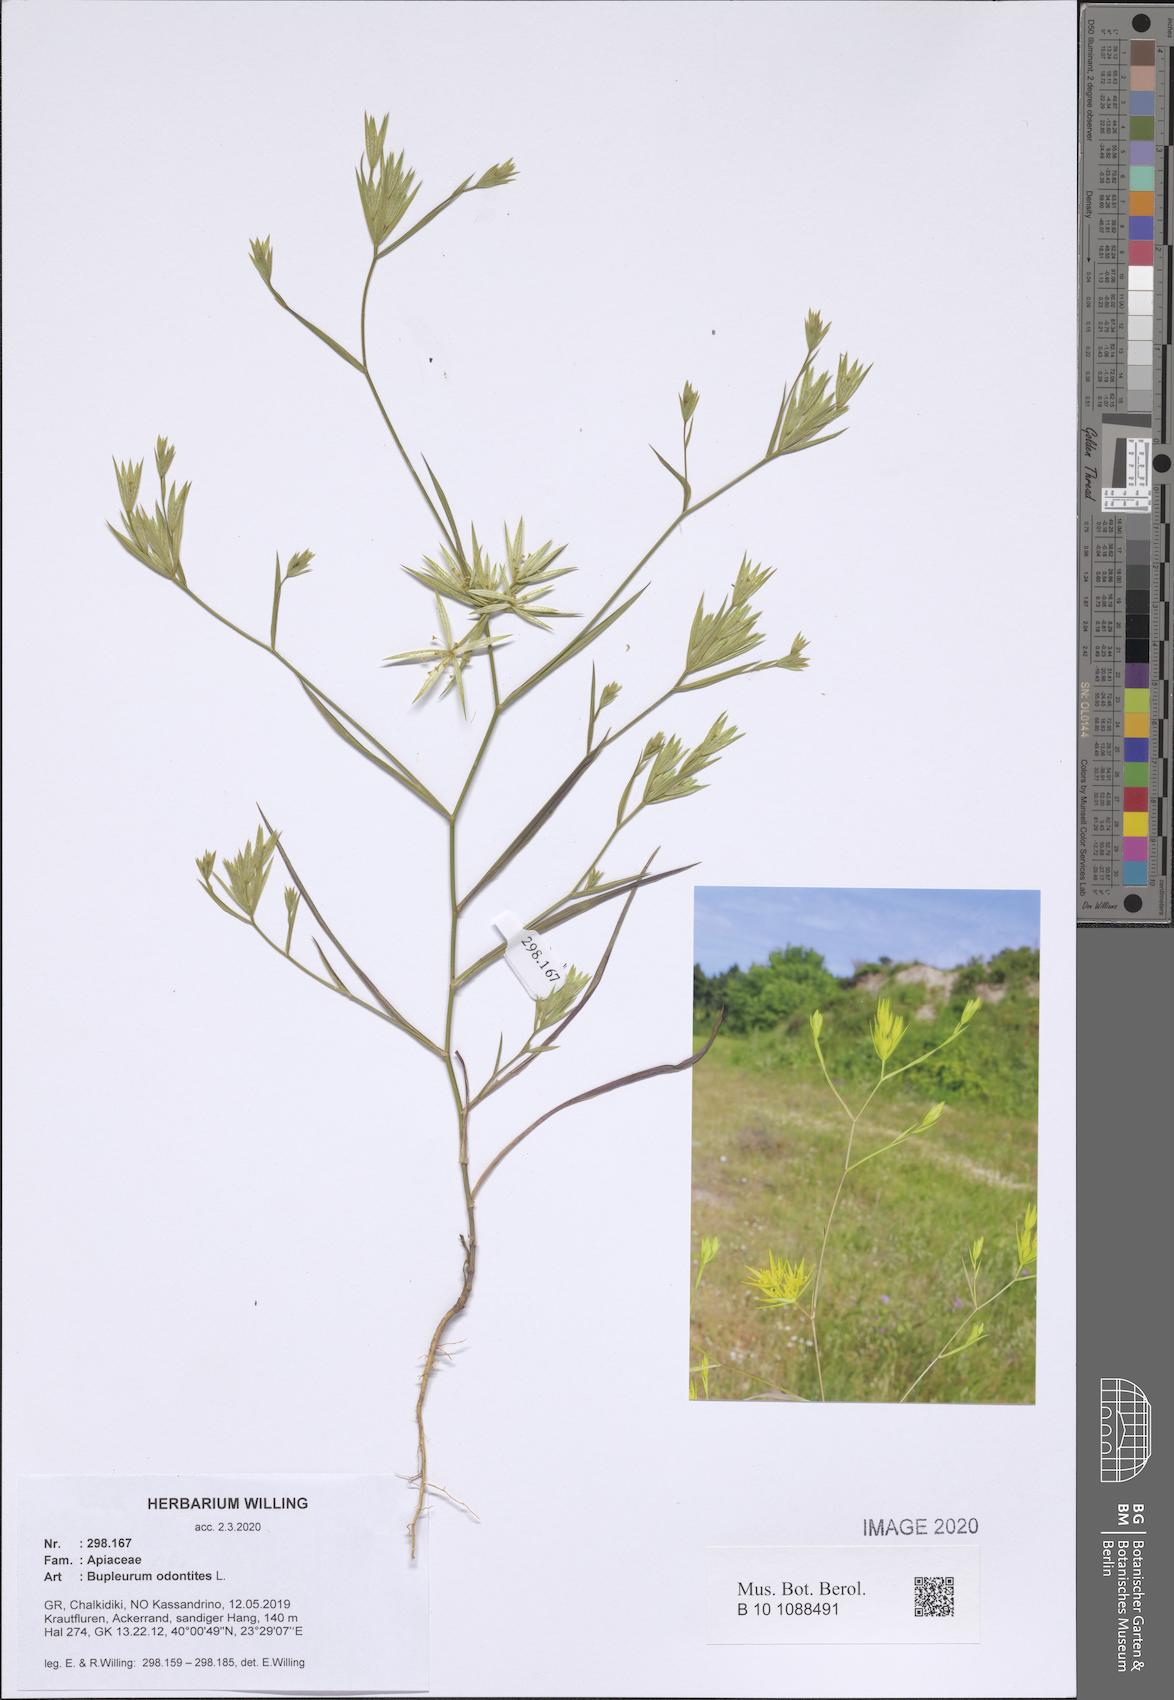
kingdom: Plantae
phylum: Tracheophyta
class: Magnoliopsida
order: Apiales
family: Apiaceae
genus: Bupleurum
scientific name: Bupleurum odontites
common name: Narrowleaf thorow wax
